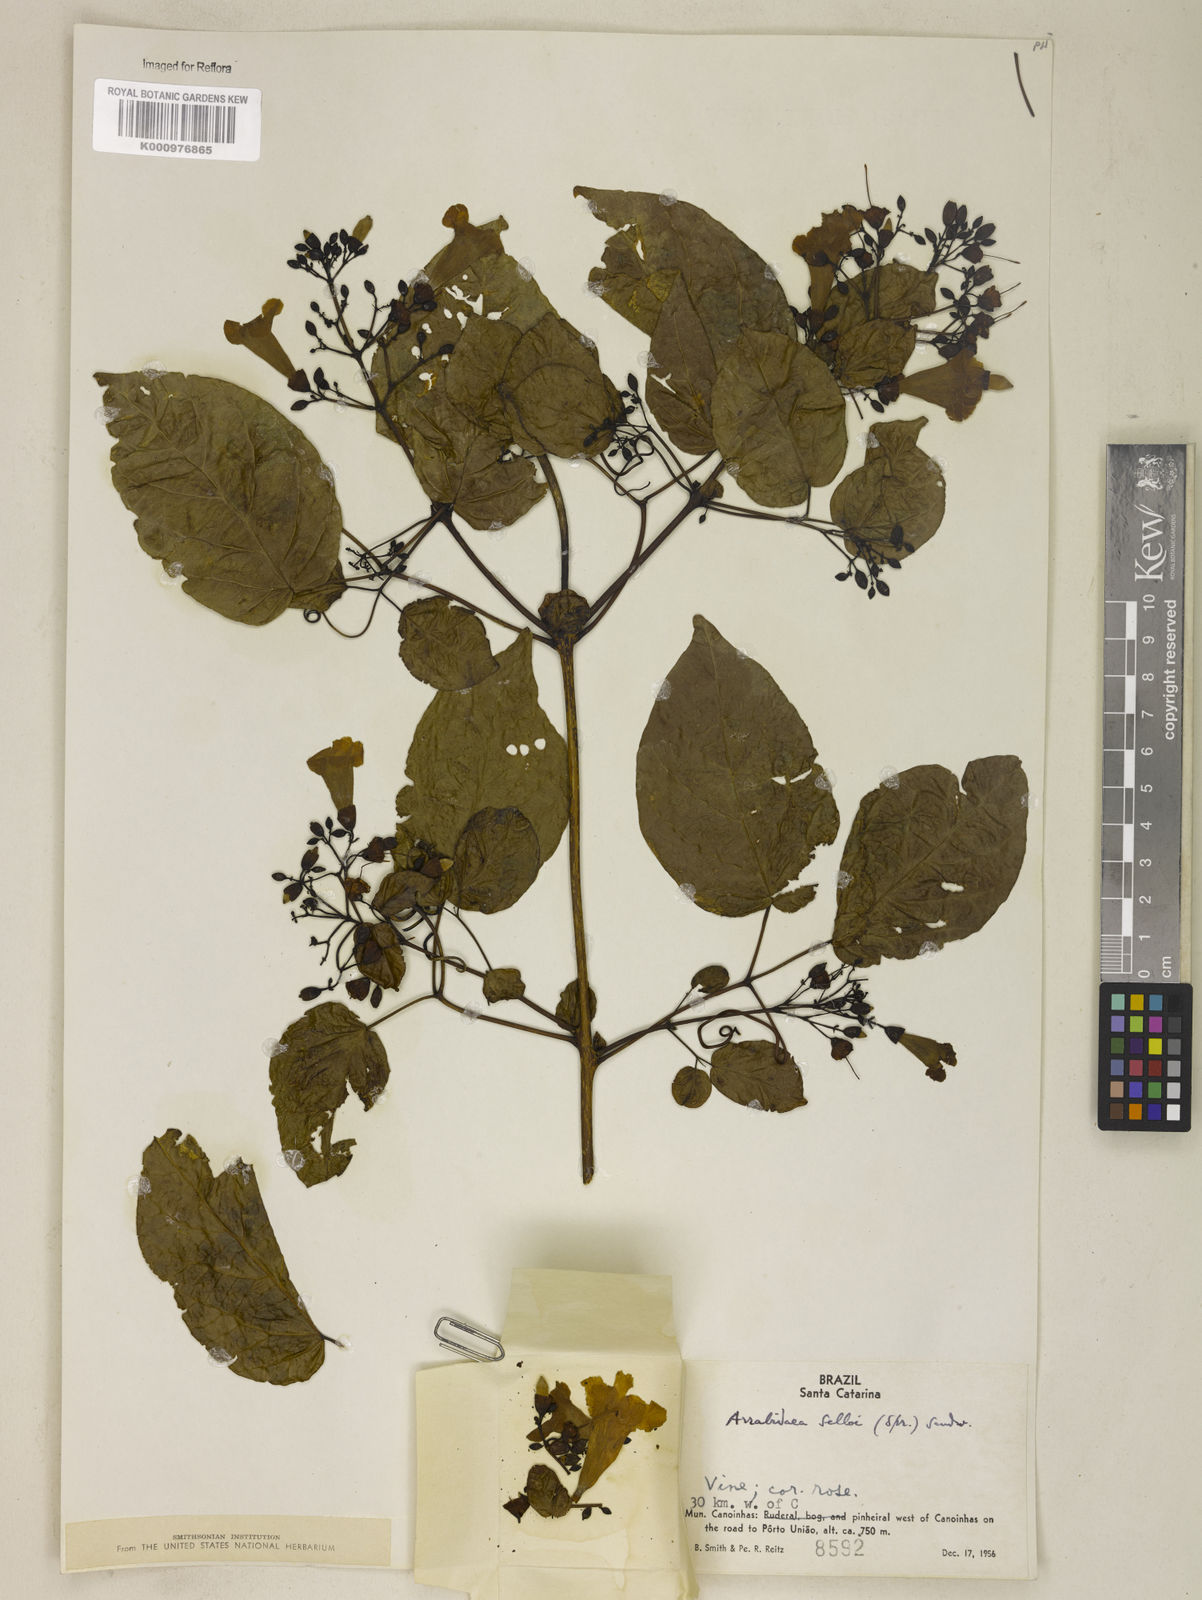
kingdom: Plantae
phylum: Tracheophyta
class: Magnoliopsida
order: Lamiales
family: Bignoniaceae
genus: Tanaecium
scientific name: Tanaecium selloi
